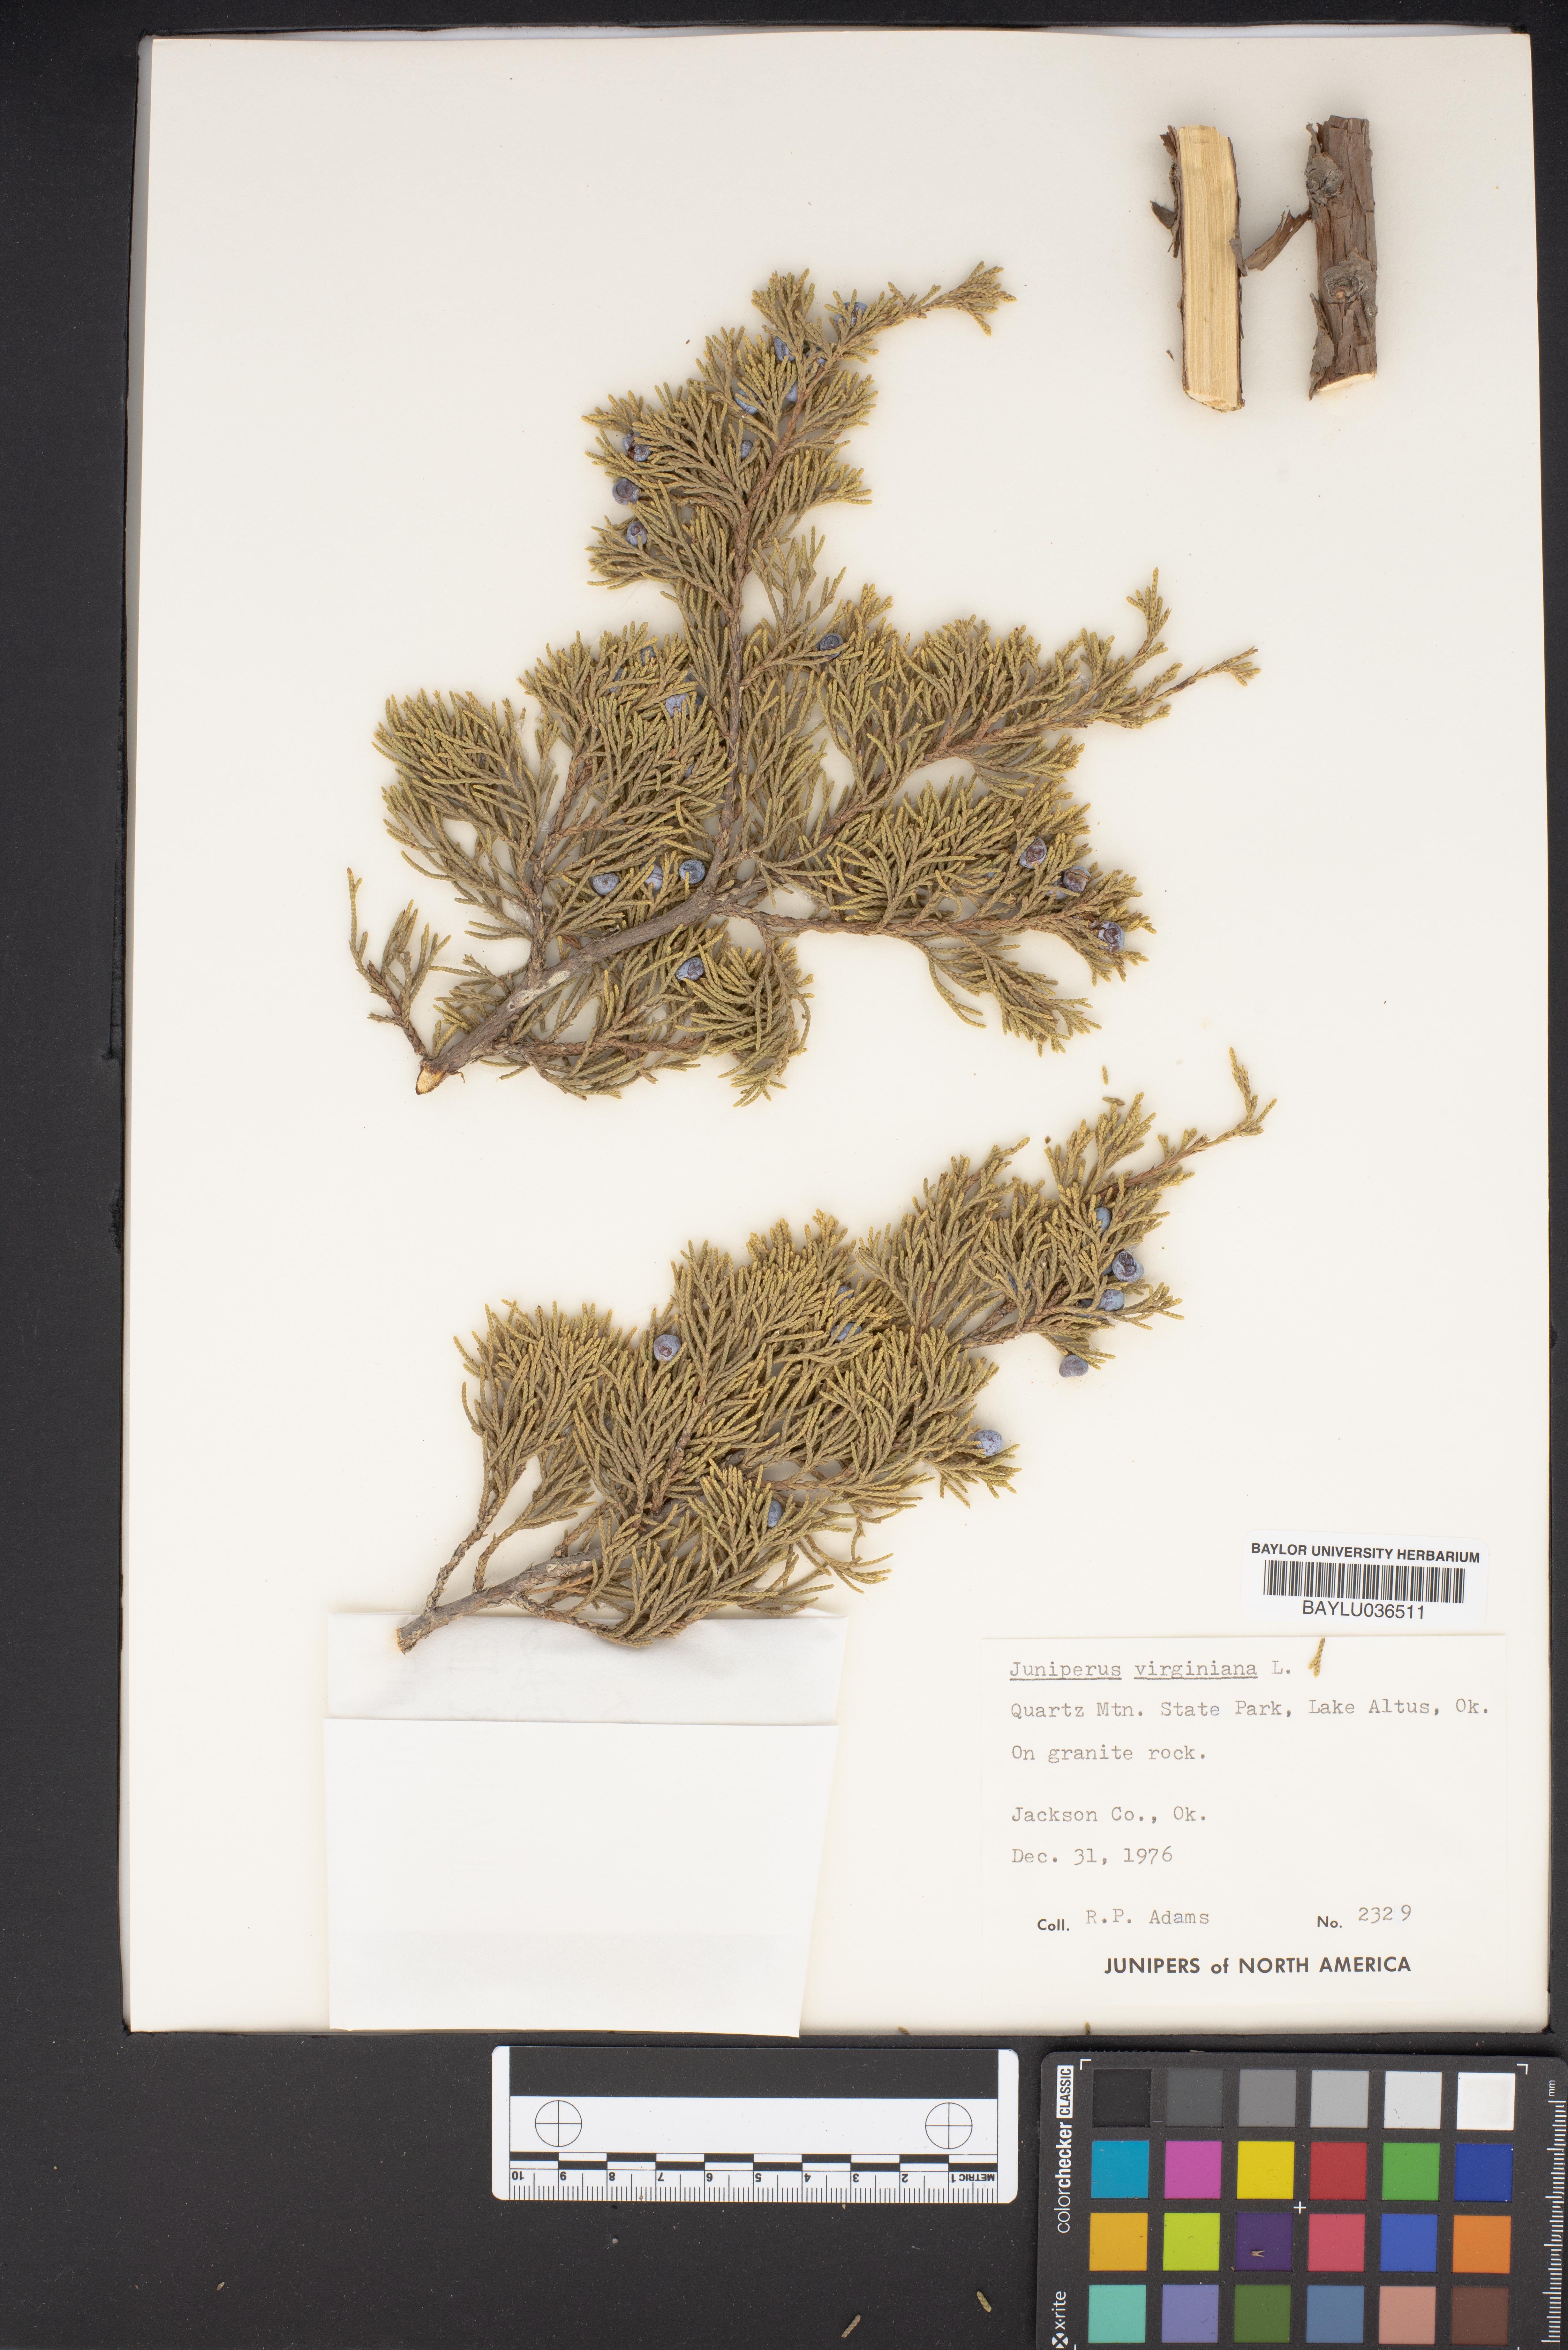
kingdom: Plantae
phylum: Tracheophyta
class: Pinopsida
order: Pinales
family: Cupressaceae
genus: Juniperus
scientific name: Juniperus virginiana
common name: Red juniper
